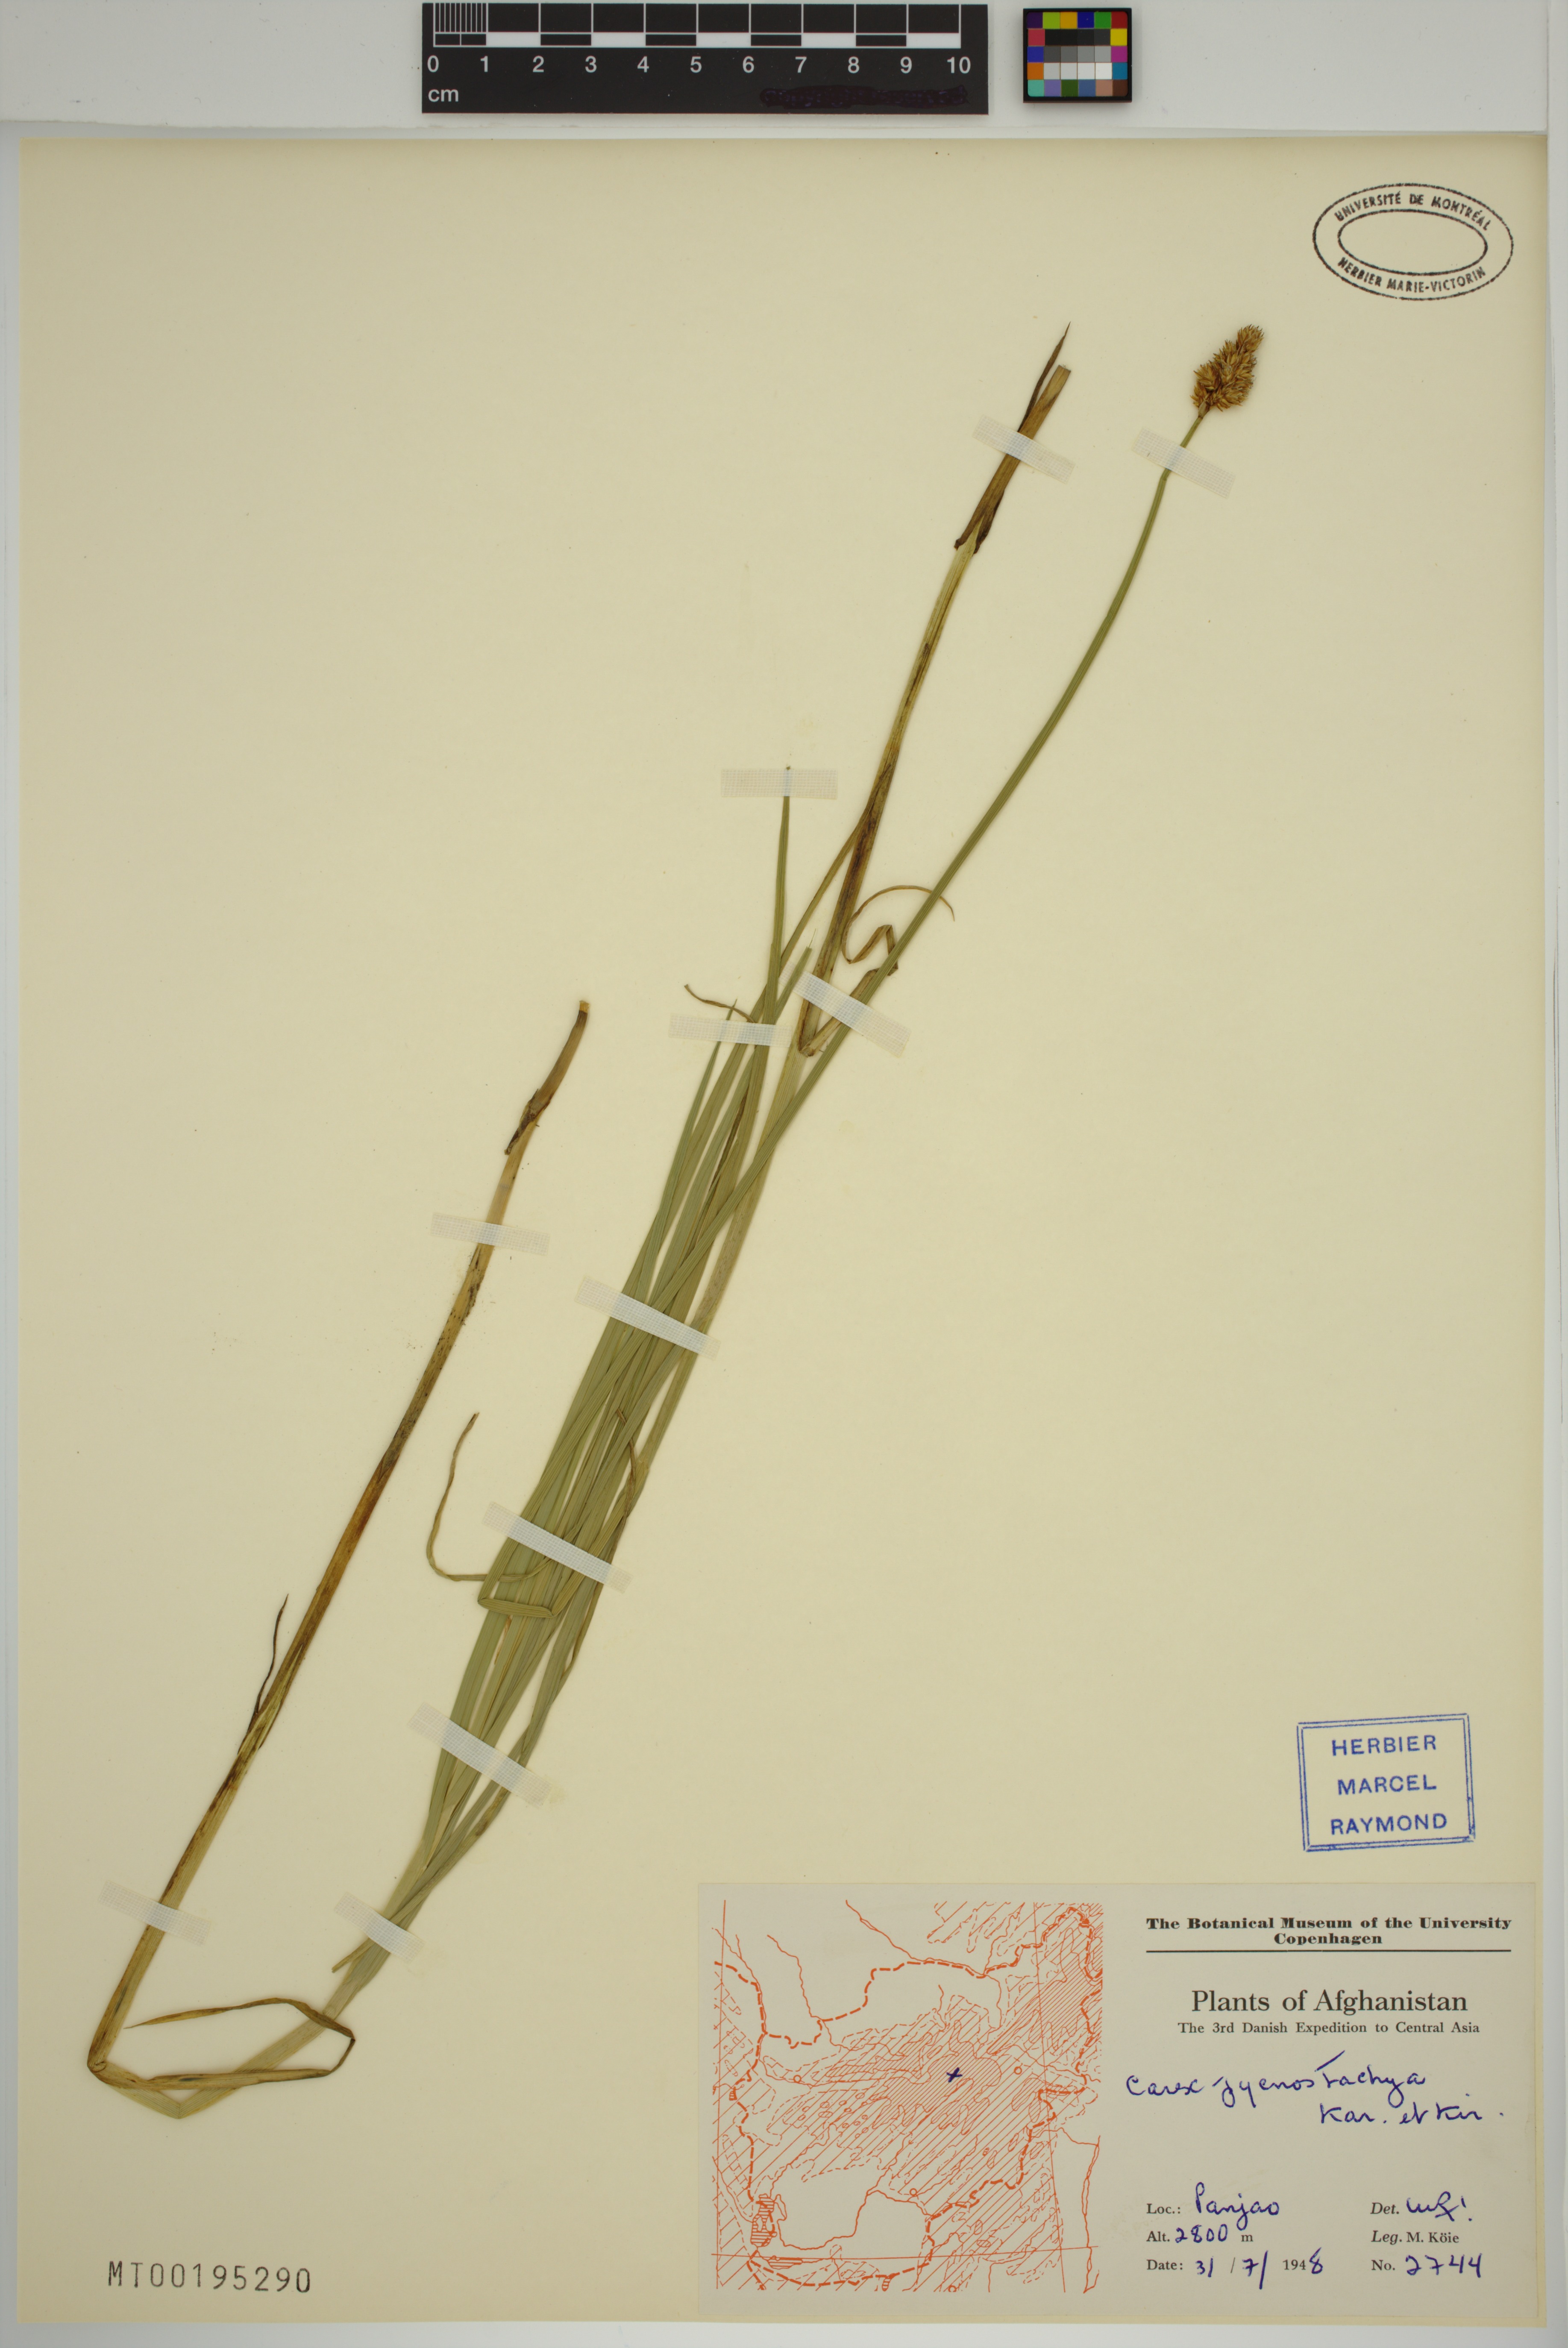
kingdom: Plantae
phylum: Tracheophyta
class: Liliopsida
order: Poales
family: Cyperaceae
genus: Carex
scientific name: Carex pycnostachya
